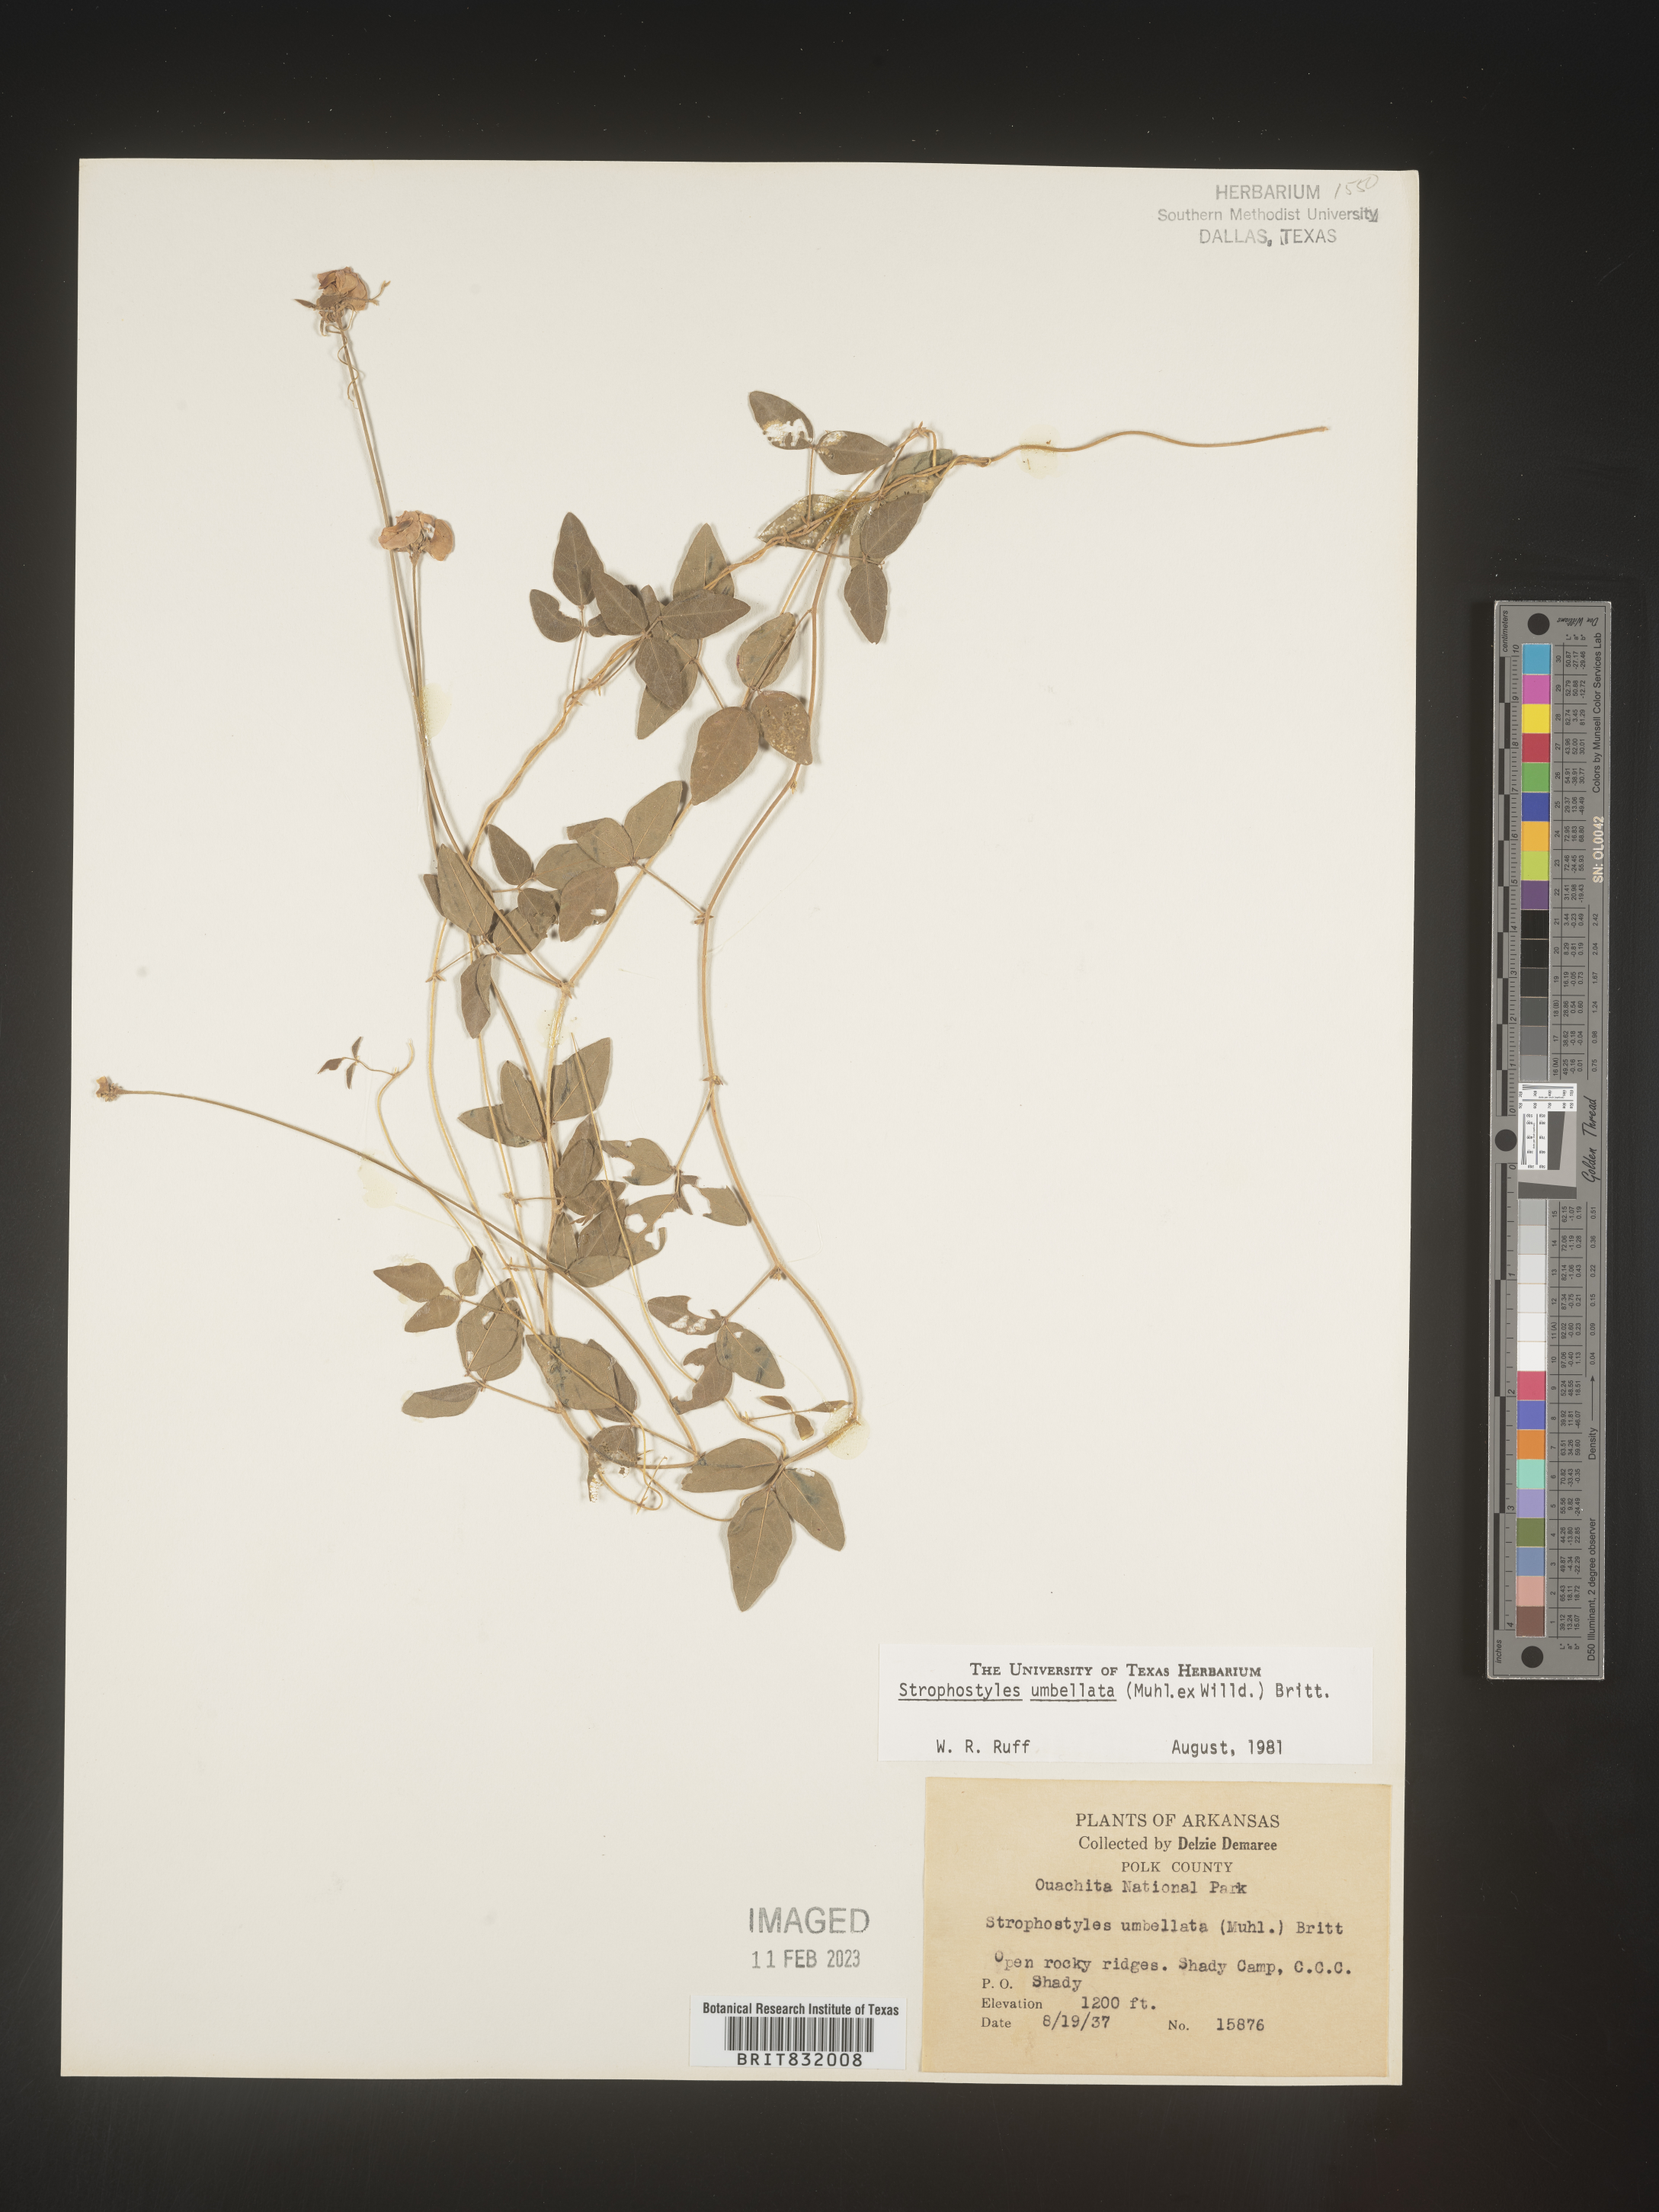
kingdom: Plantae
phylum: Tracheophyta
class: Magnoliopsida
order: Fabales
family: Fabaceae
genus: Strophostyles
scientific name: Strophostyles umbellata
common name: Perennial wild bean
